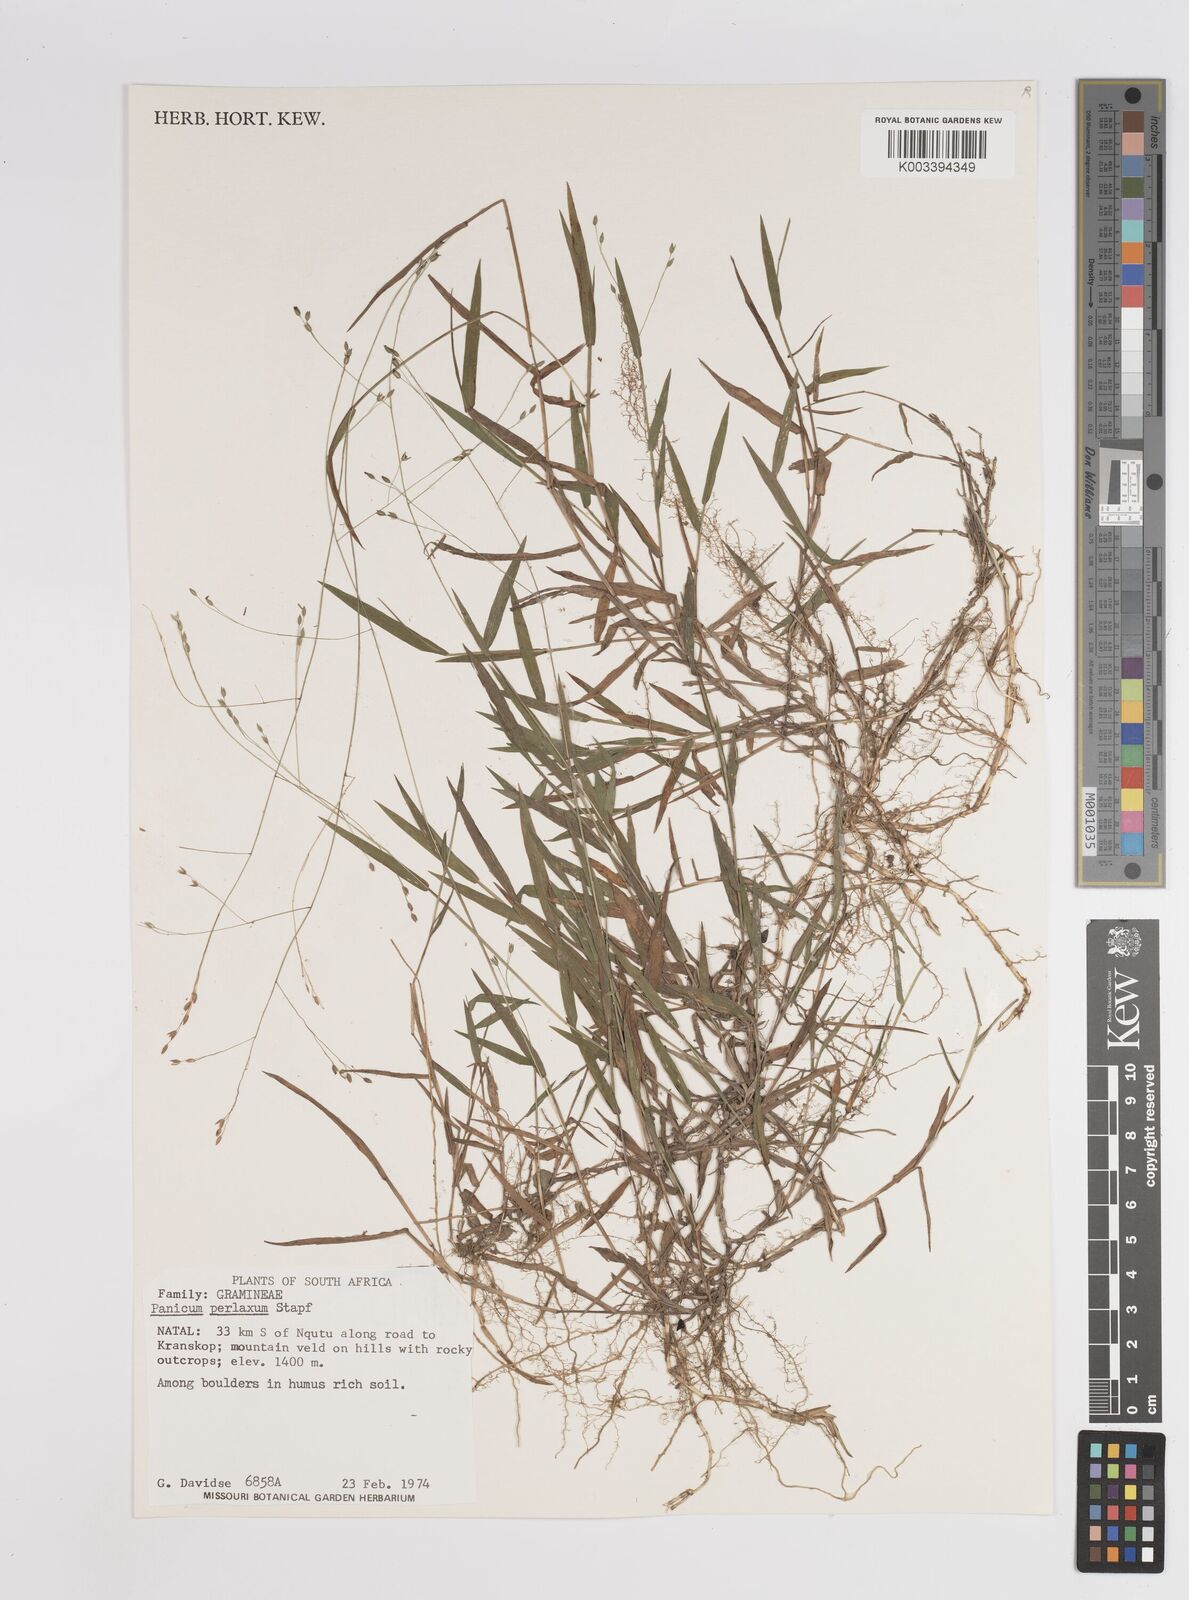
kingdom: Plantae
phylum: Tracheophyta
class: Liliopsida
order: Poales
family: Poaceae
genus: Panicum
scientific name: Panicum aequinerve
